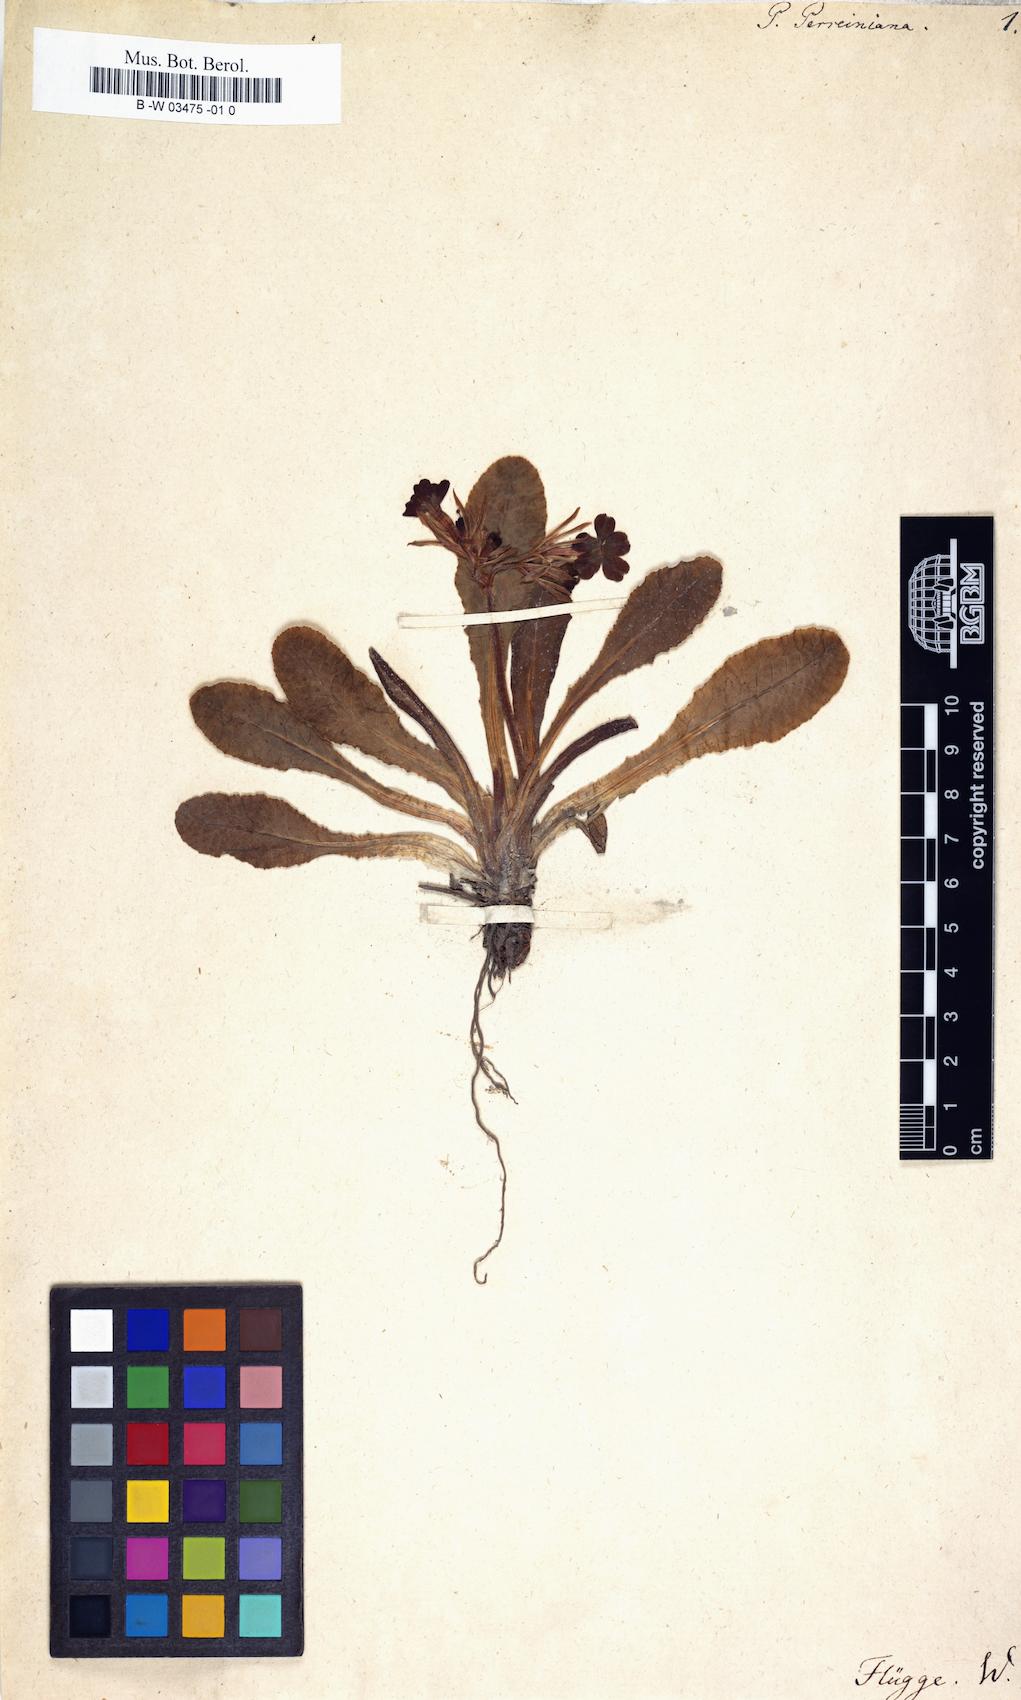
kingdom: Plantae
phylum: Tracheophyta
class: Magnoliopsida
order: Ericales
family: Primulaceae
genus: Primula
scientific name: Primula elatior
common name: Oxlip
